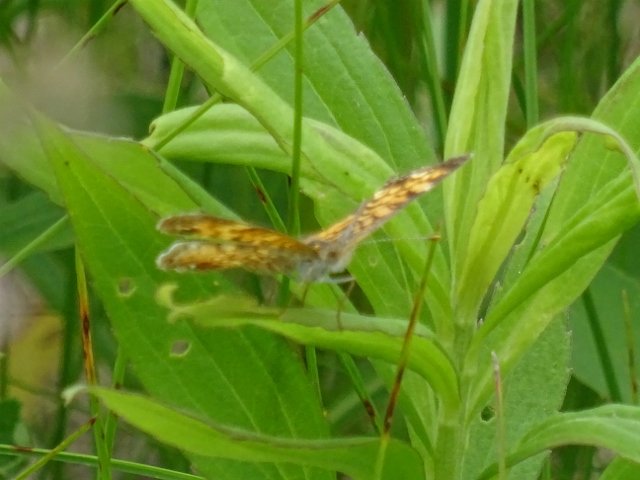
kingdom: Animalia
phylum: Arthropoda
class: Insecta
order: Lepidoptera
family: Nymphalidae
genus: Phyciodes
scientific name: Phyciodes tharos
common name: Pearl Crescent
